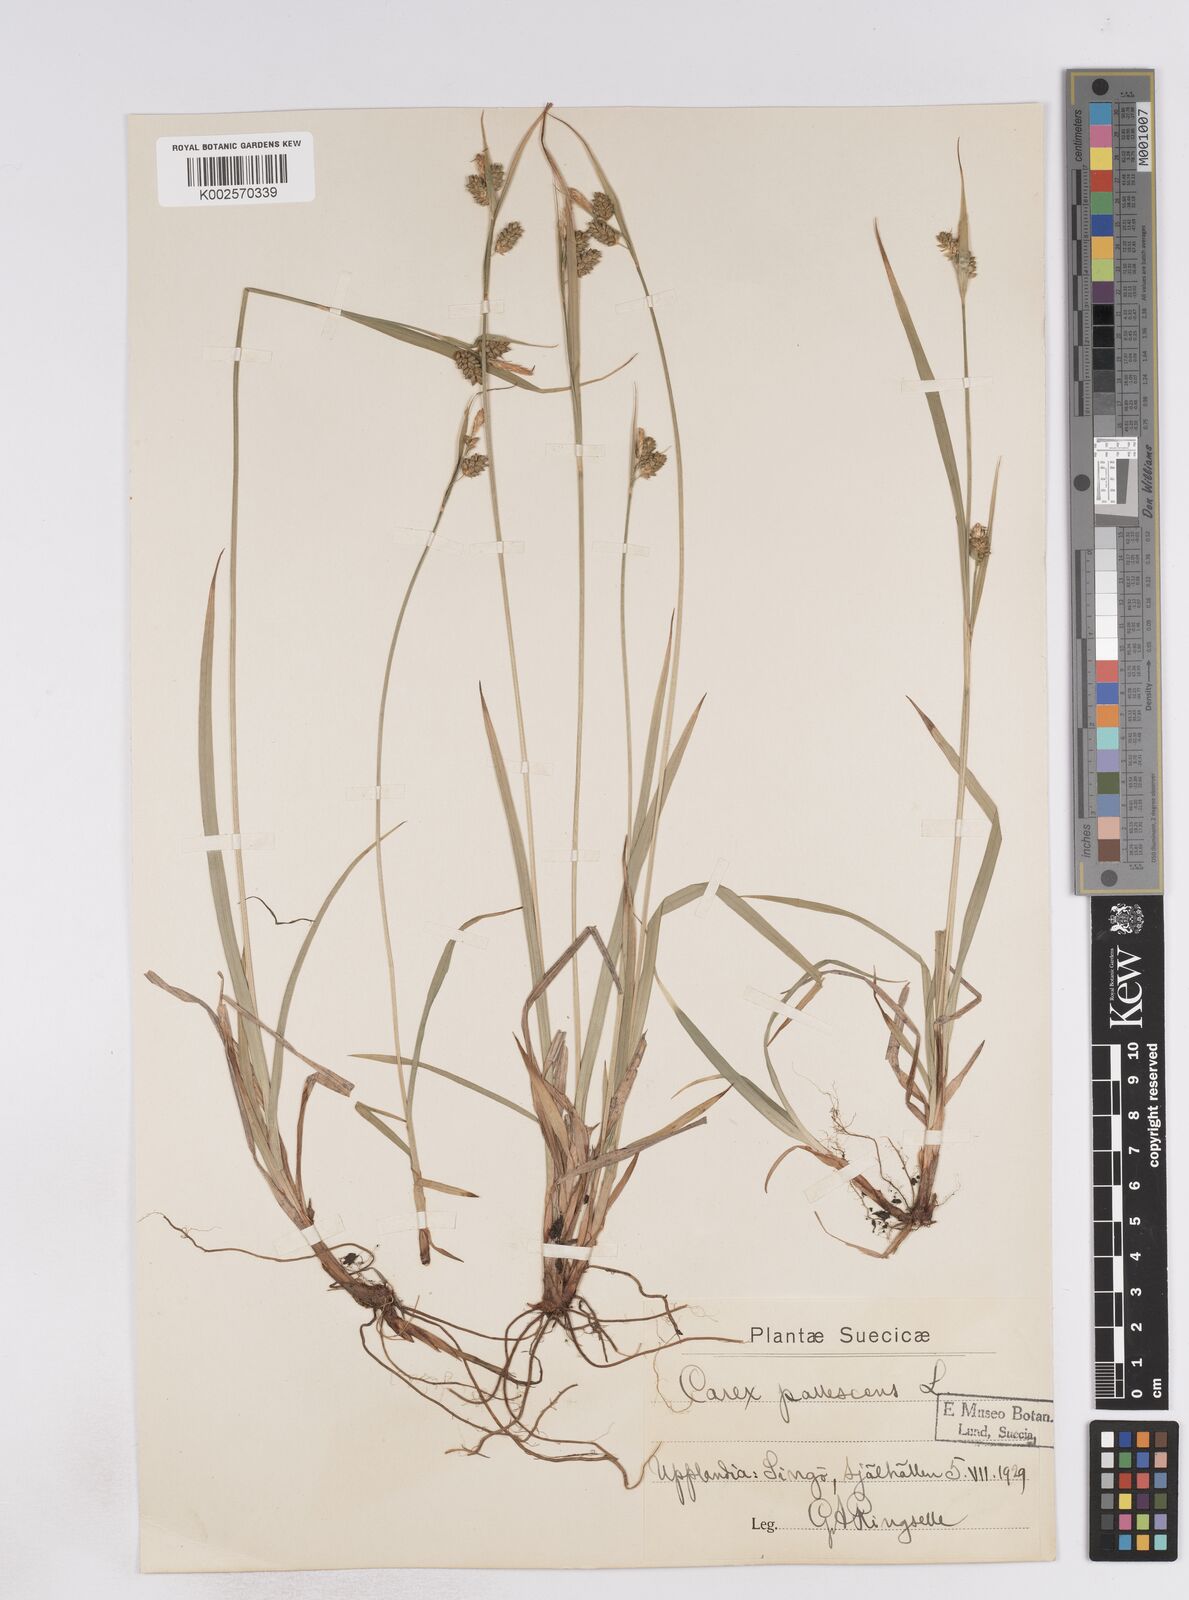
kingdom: Plantae
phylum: Tracheophyta
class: Liliopsida
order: Poales
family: Cyperaceae
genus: Carex
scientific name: Carex pallescens
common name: Pale sedge
